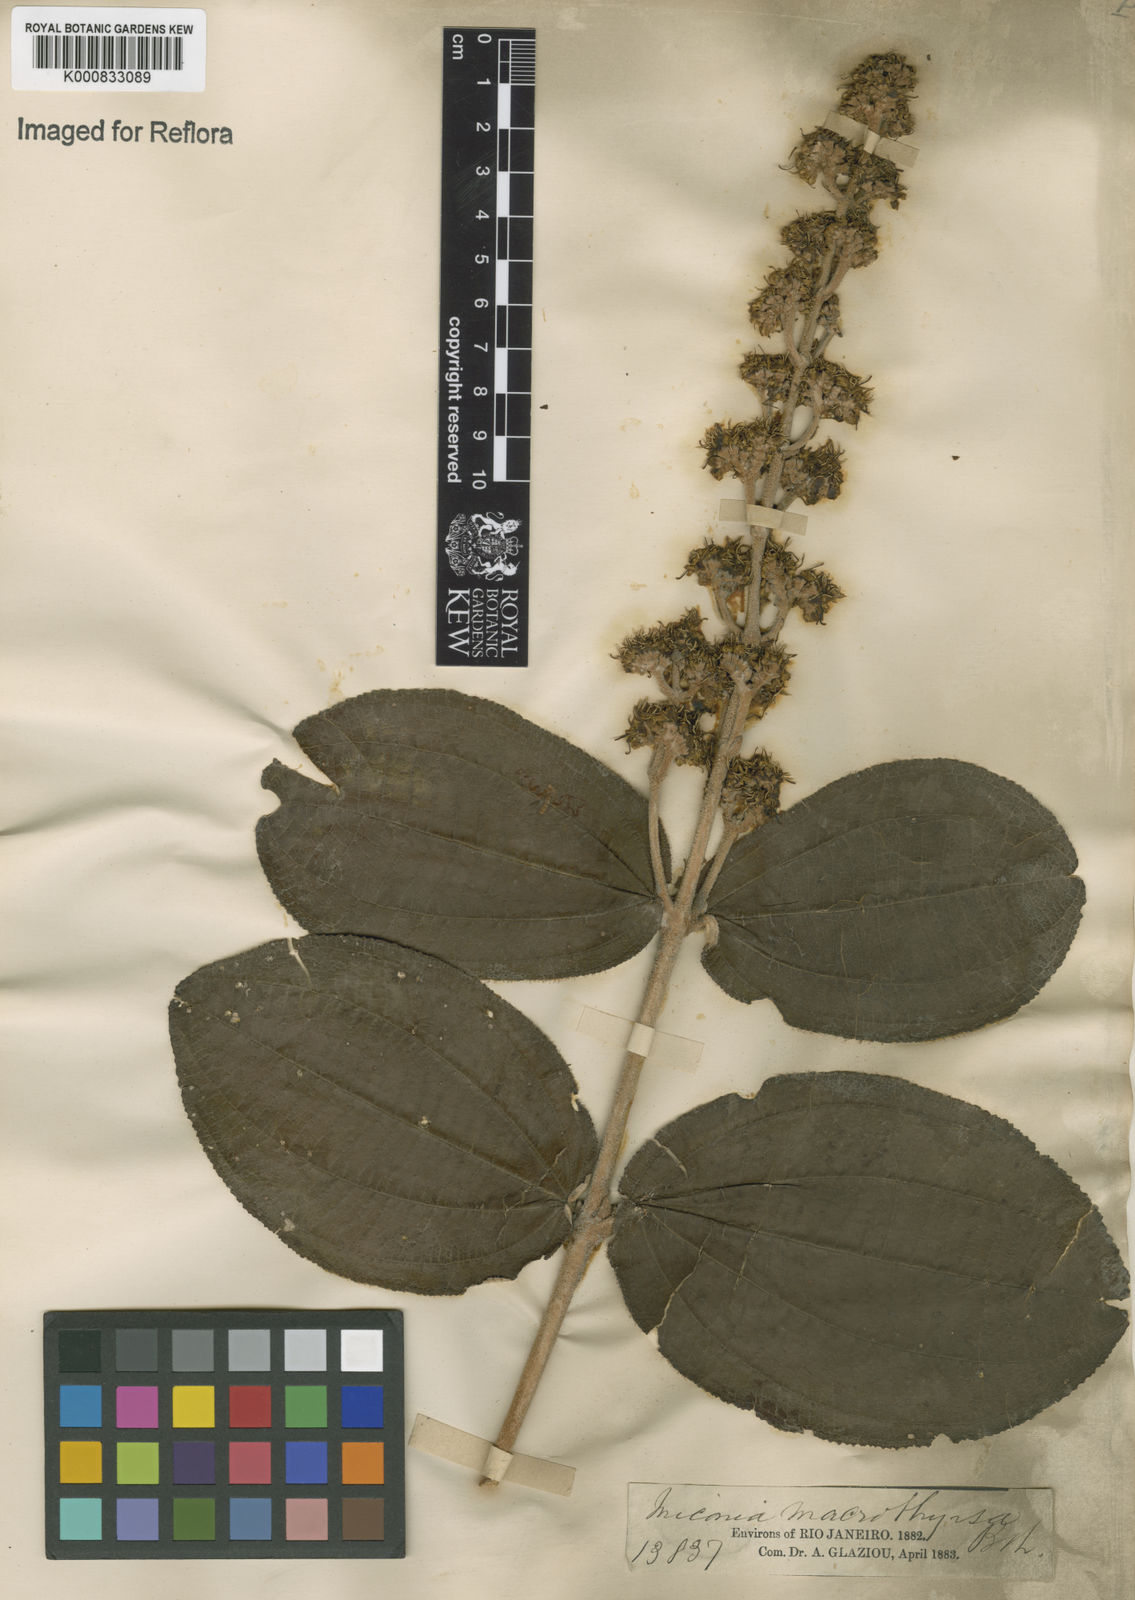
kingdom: Plantae
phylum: Tracheophyta
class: Magnoliopsida
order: Myrtales
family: Melastomataceae
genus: Miconia
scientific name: Miconia macrothyrsa
